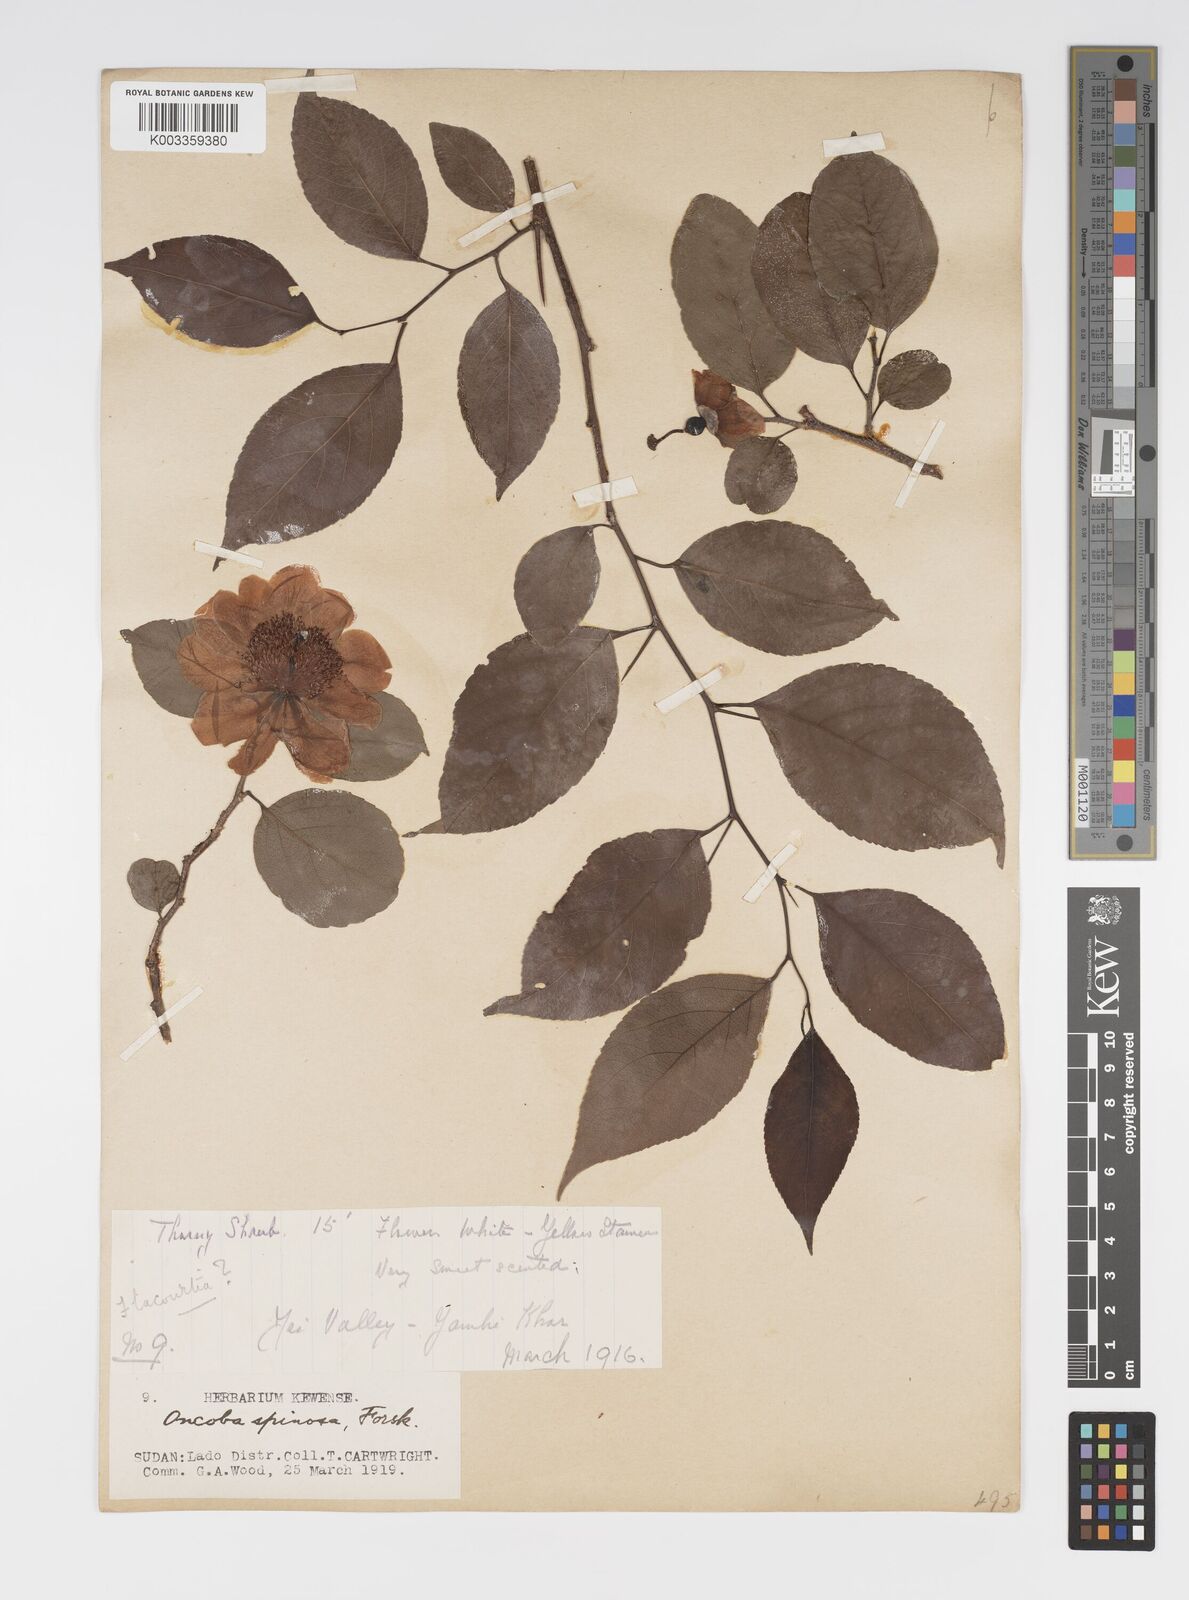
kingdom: Plantae
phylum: Tracheophyta
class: Magnoliopsida
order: Malpighiales
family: Salicaceae
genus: Oncoba
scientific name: Oncoba spinosa
